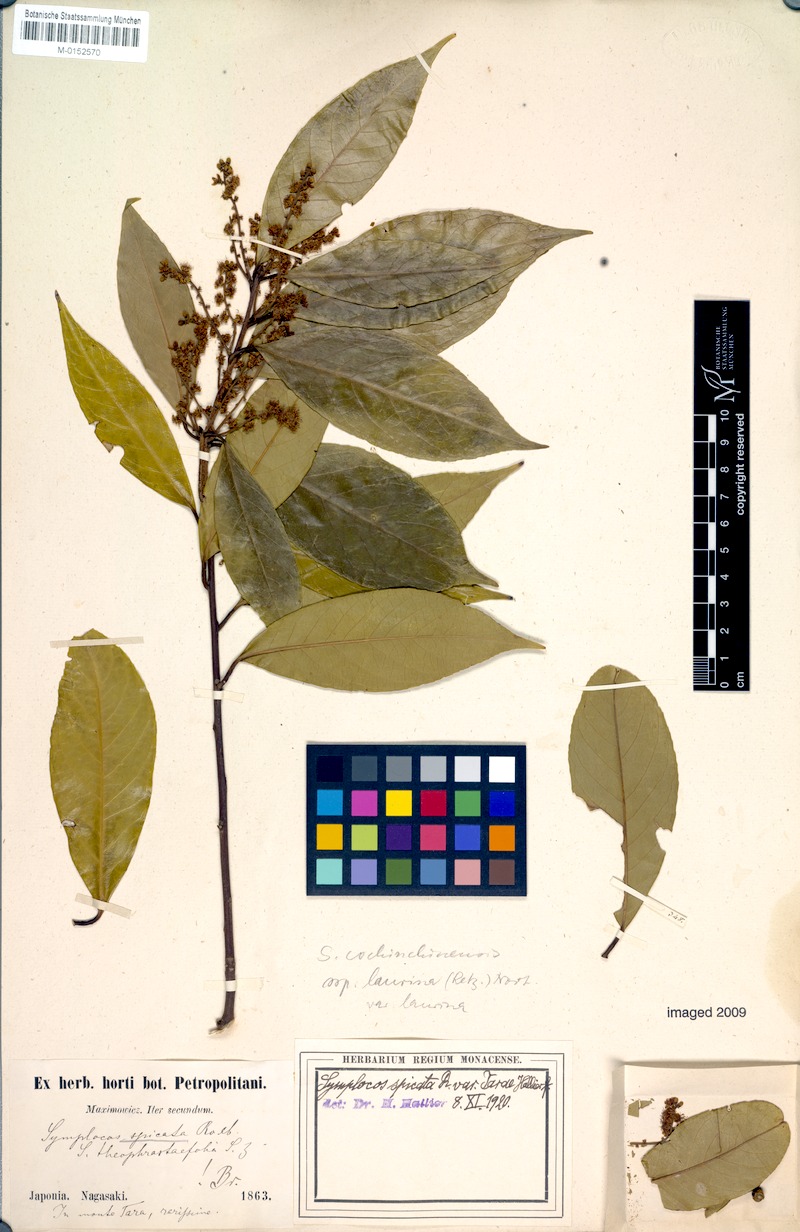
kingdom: Plantae
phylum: Tracheophyta
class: Magnoliopsida
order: Ericales
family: Symplocaceae
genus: Symplocos
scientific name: Symplocos acuminata
